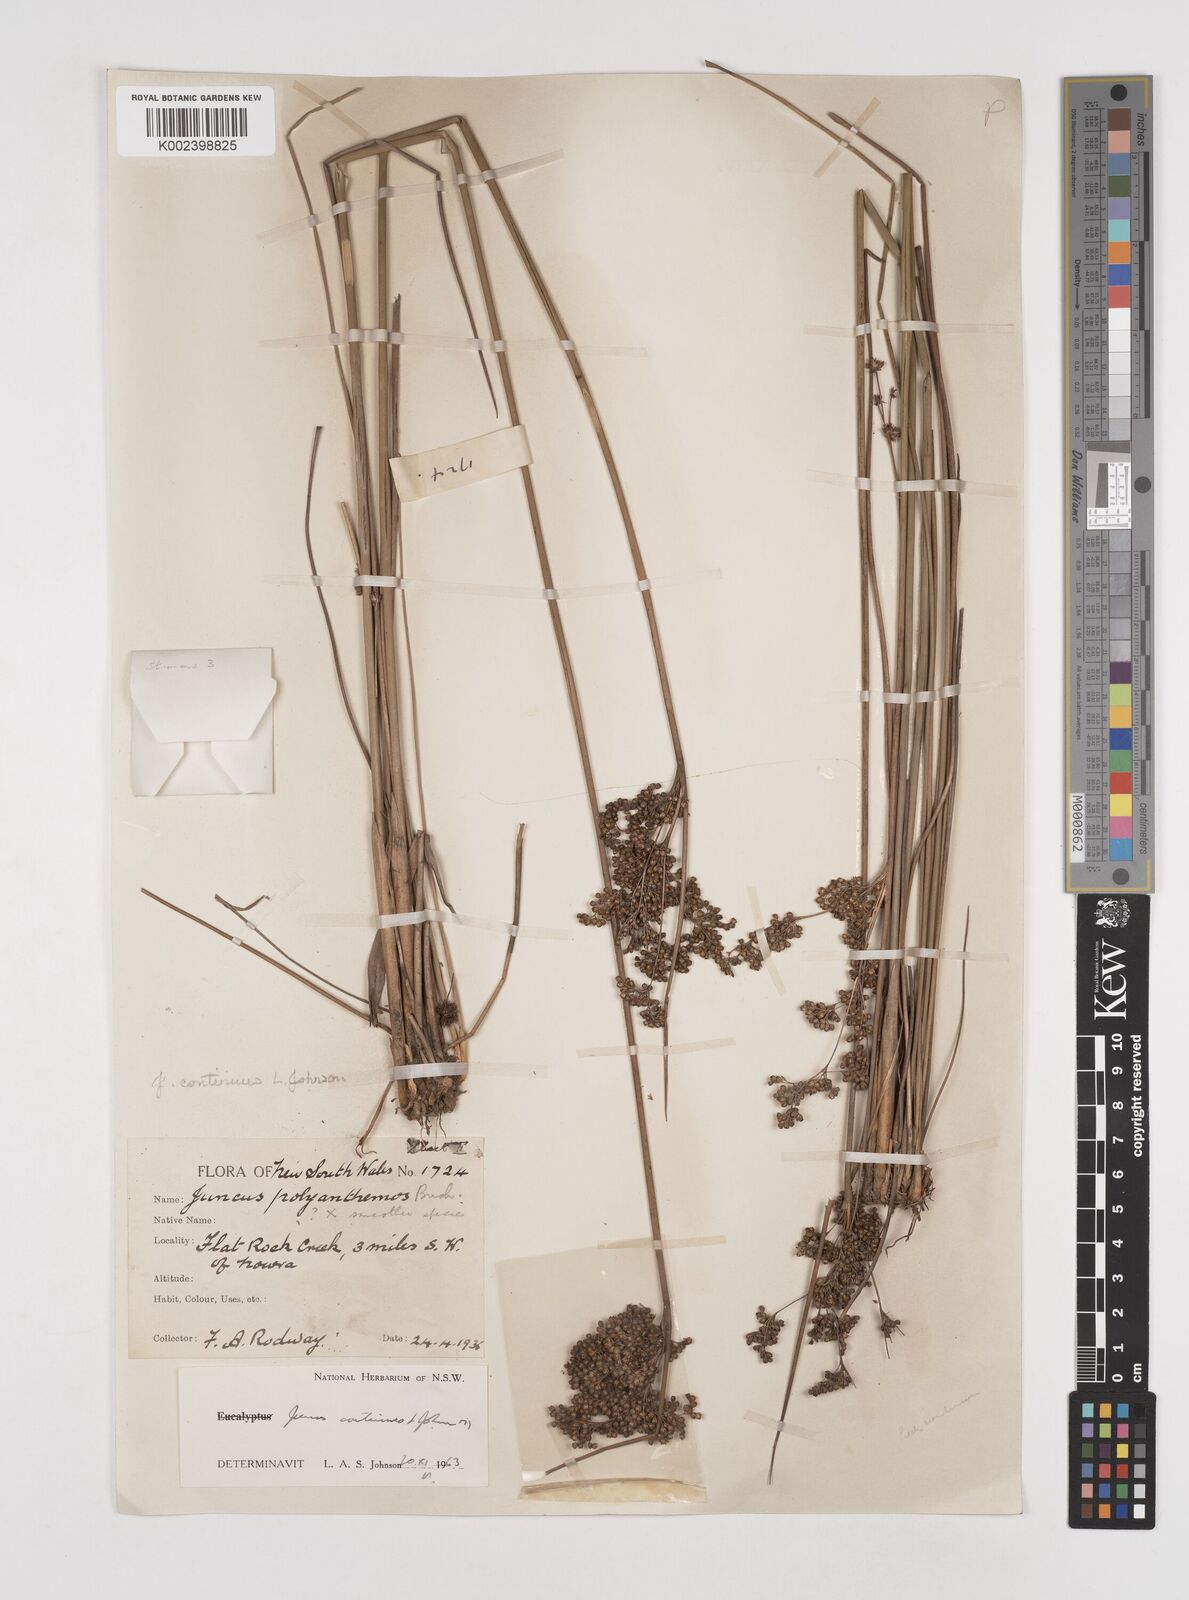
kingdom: Plantae
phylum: Tracheophyta
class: Liliopsida
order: Poales
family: Juncaceae
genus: Juncus
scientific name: Juncus continuus
